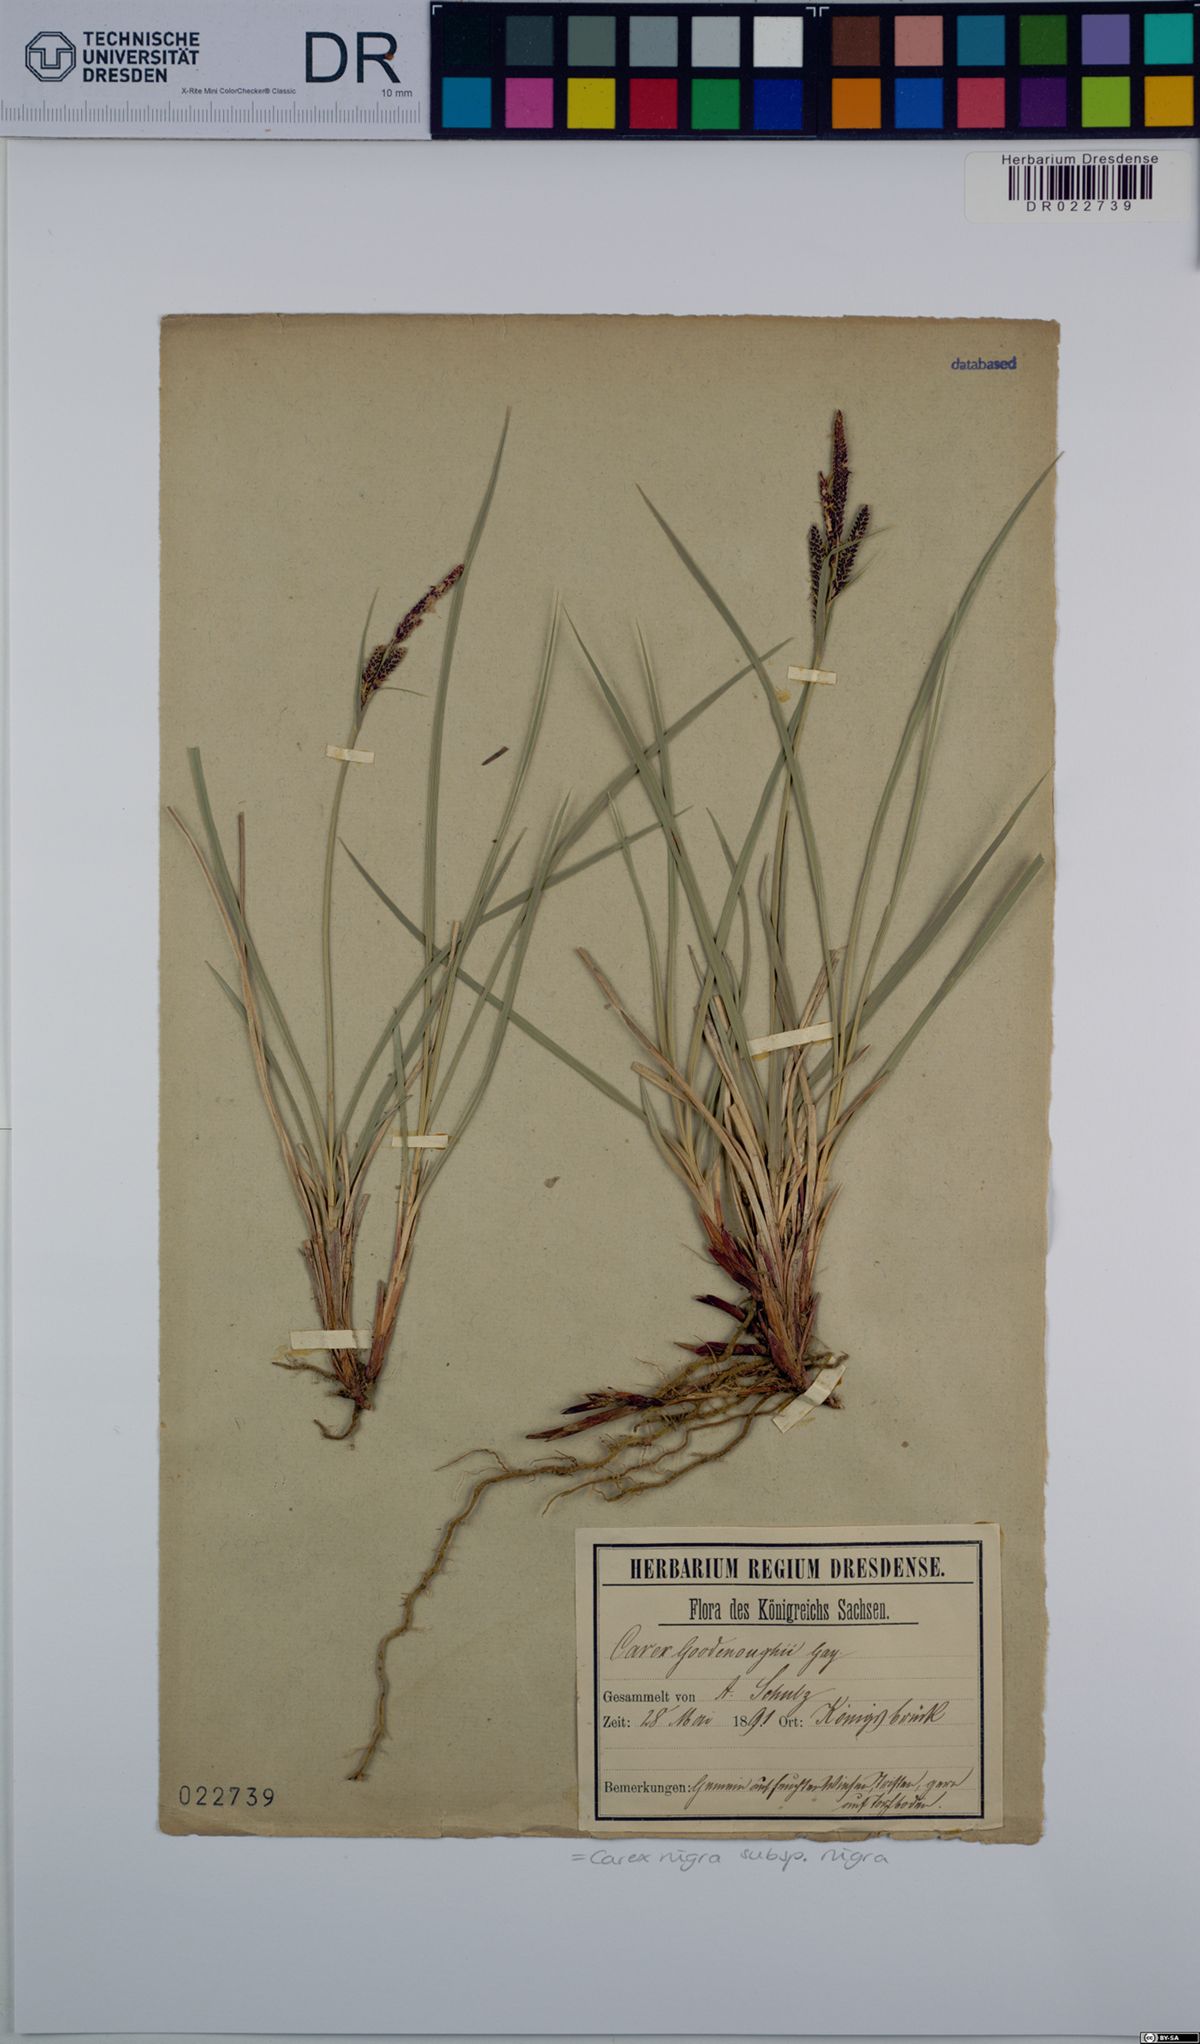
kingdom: Plantae
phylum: Tracheophyta
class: Liliopsida
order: Poales
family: Cyperaceae
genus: Carex
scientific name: Carex nigra
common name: Common sedge
